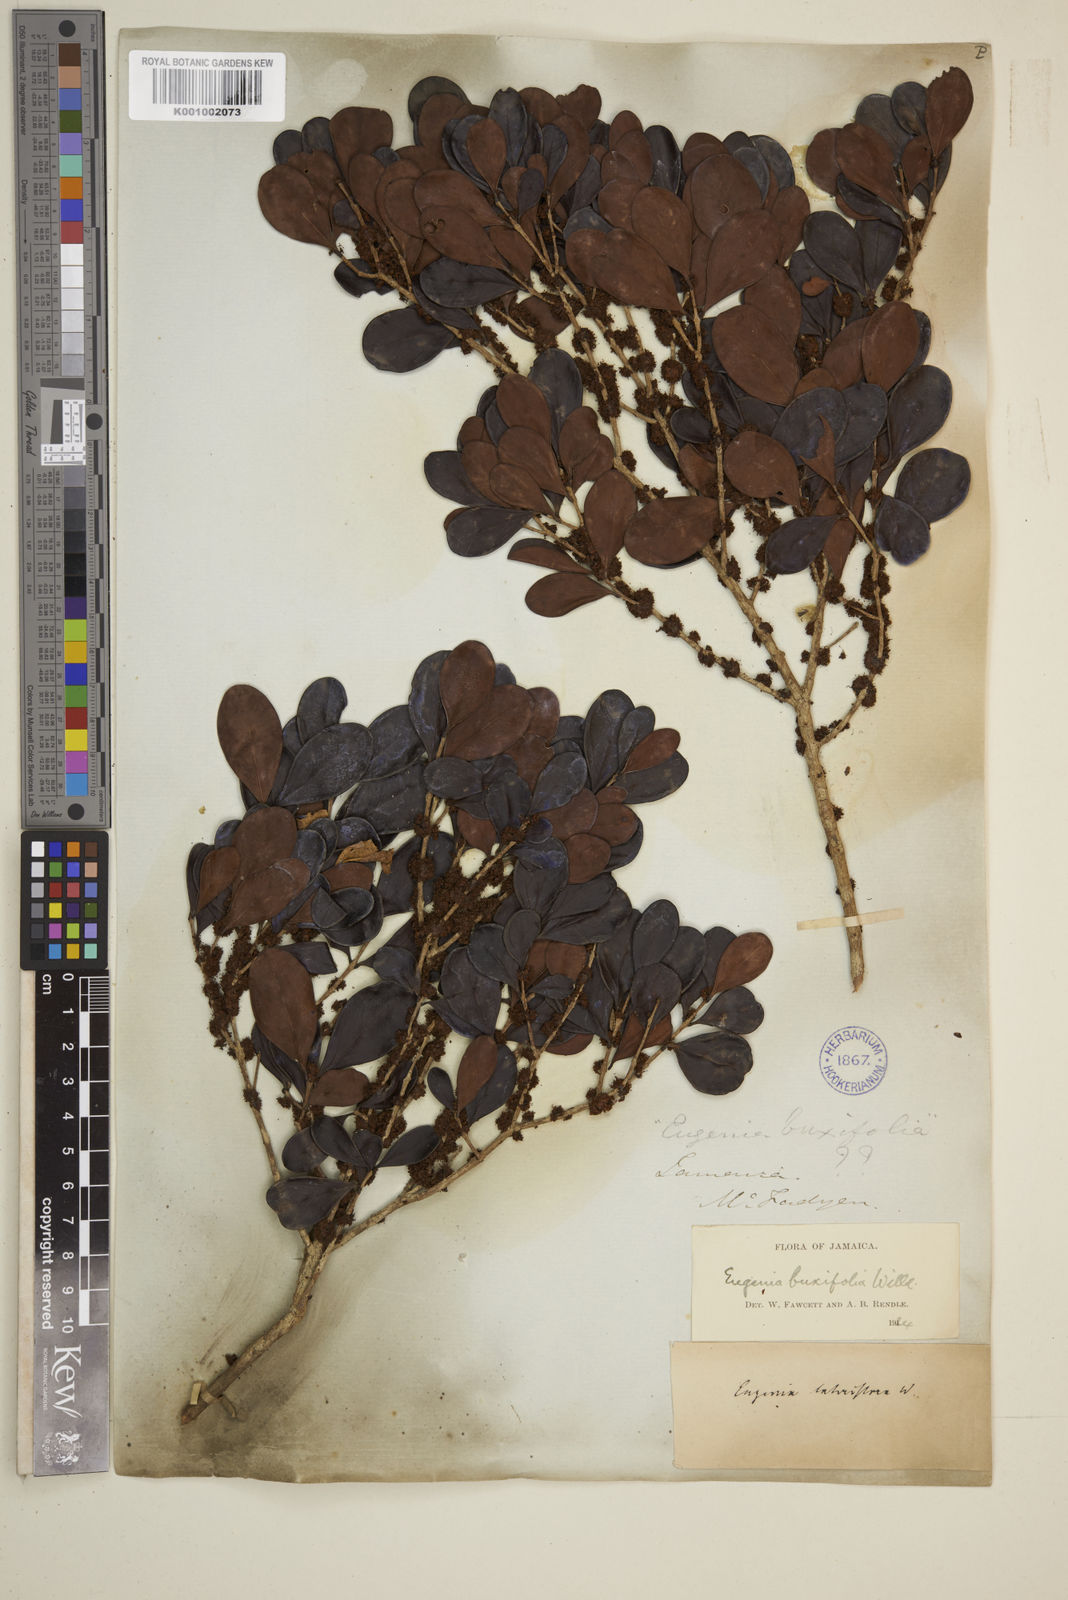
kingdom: Plantae
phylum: Tracheophyta
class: Magnoliopsida
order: Myrtales
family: Myrtaceae
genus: Eugenia
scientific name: Eugenia buxifolia
